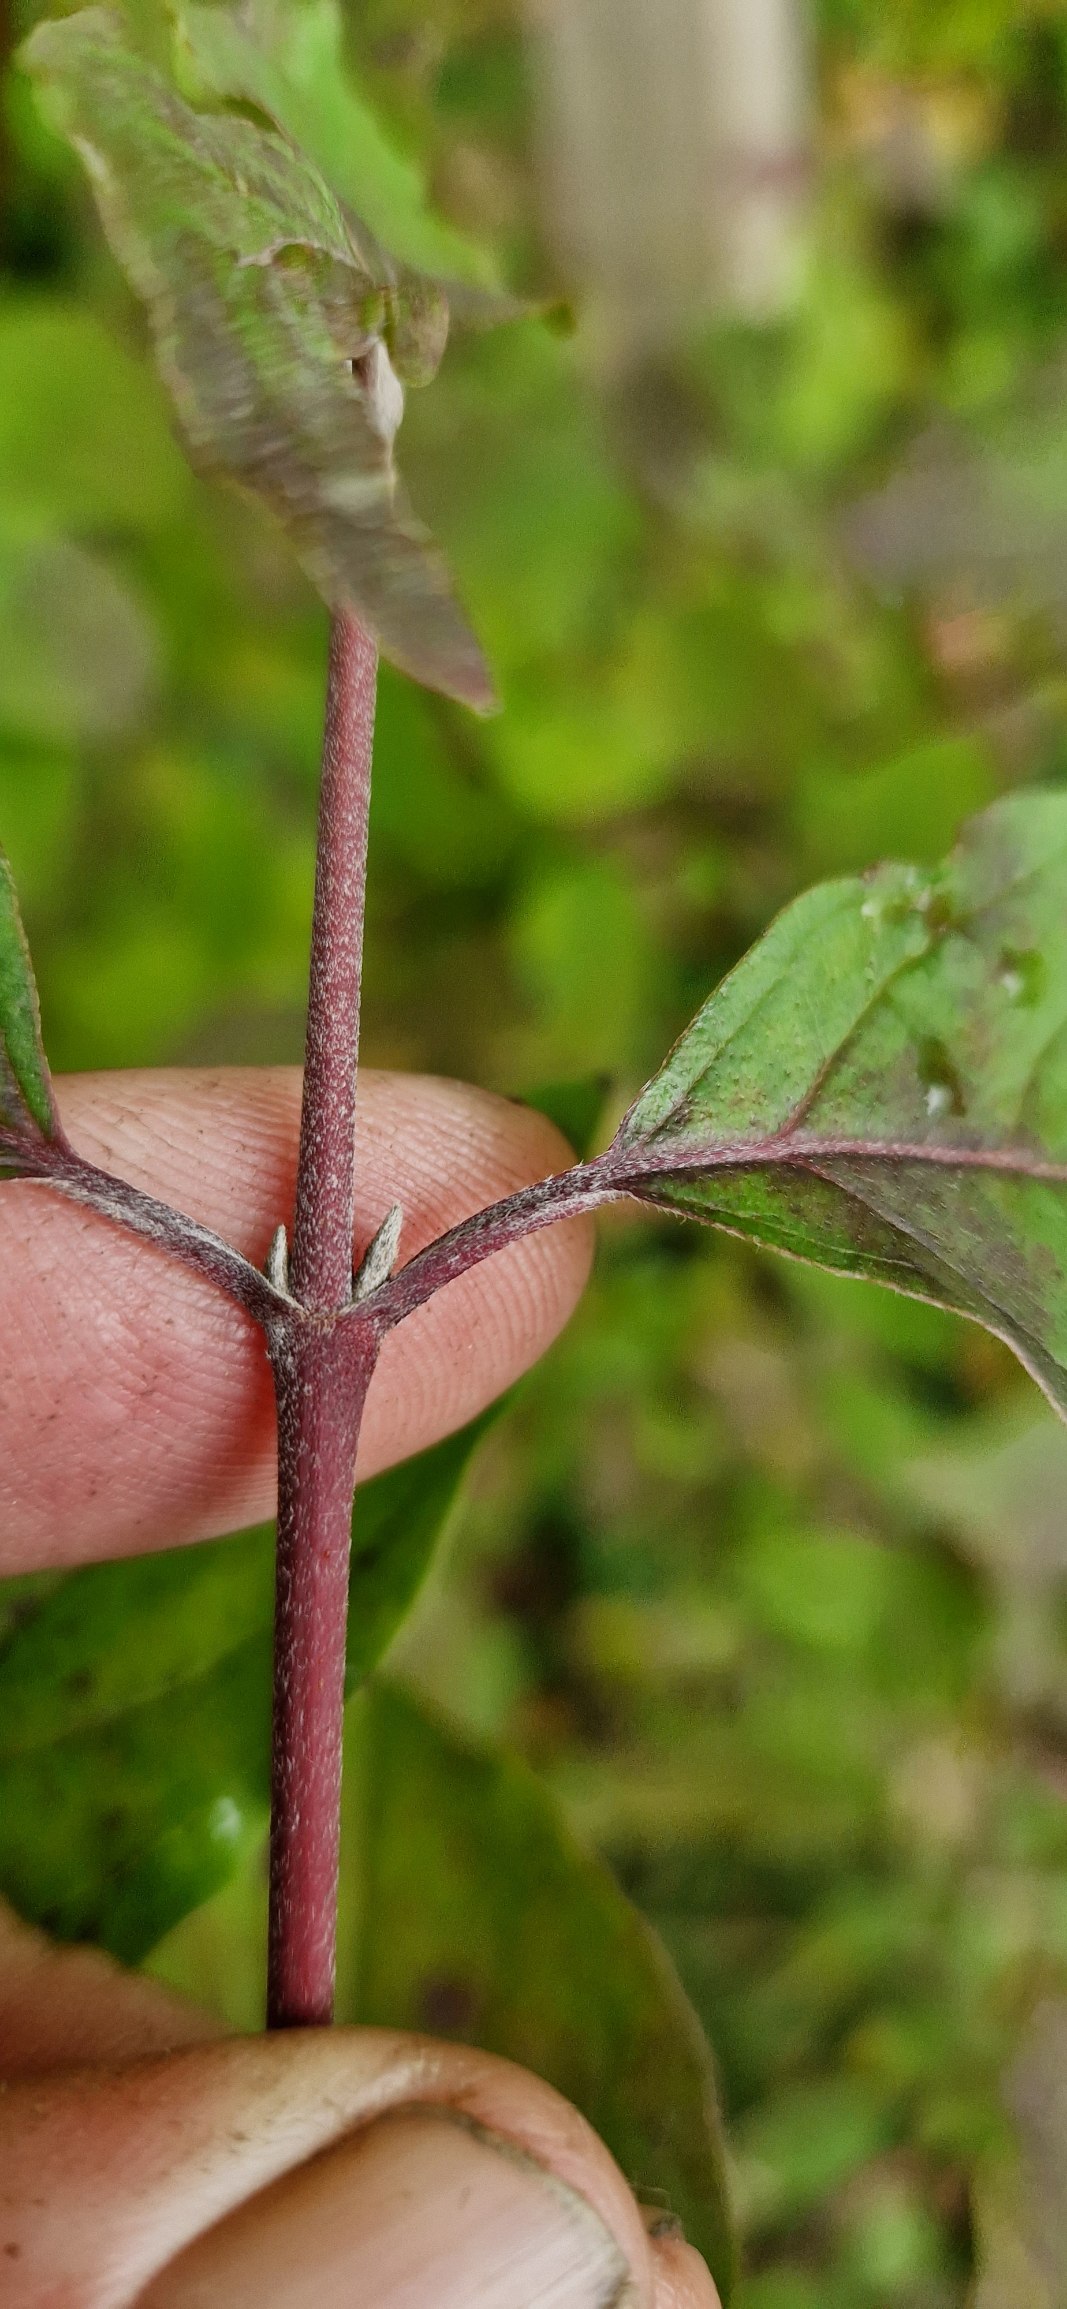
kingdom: Plantae
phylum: Tracheophyta
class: Magnoliopsida
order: Cornales
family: Cornaceae
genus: Cornus
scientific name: Cornus sanguinea
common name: Rød kornel
